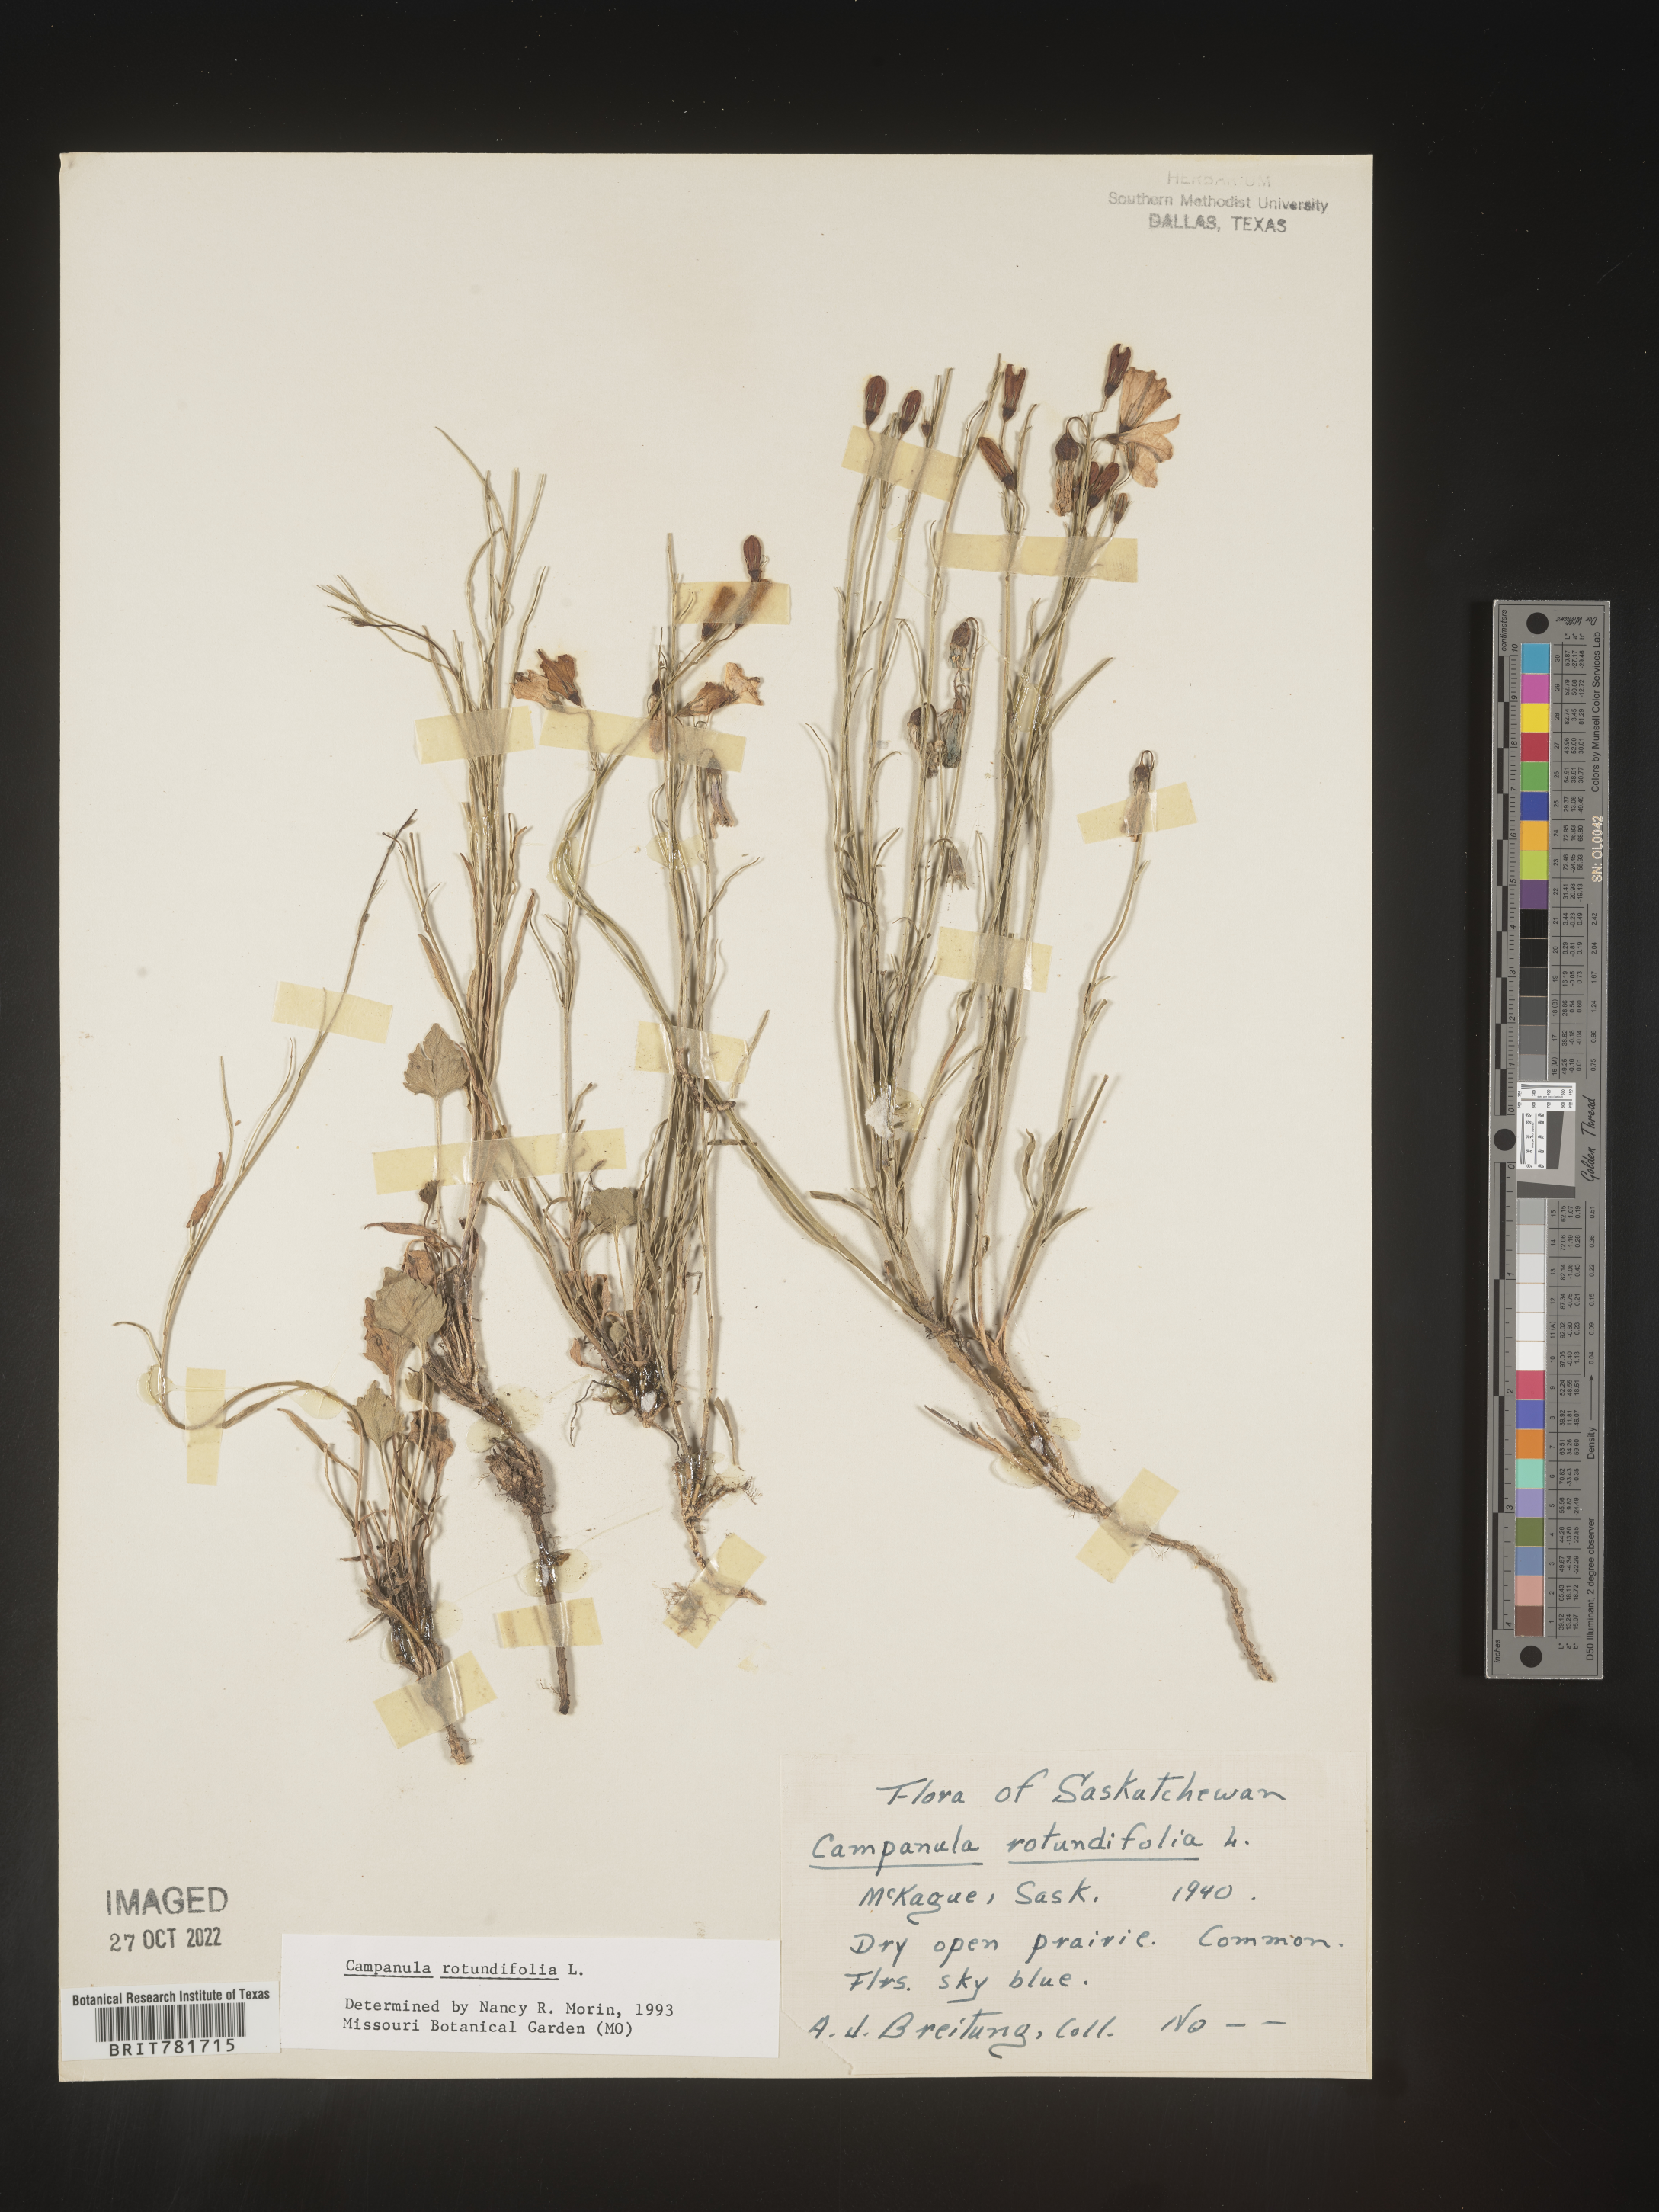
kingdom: Plantae
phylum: Tracheophyta
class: Magnoliopsida
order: Asterales
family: Campanulaceae
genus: Campanula
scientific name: Campanula rotundifolia
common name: Harebell
